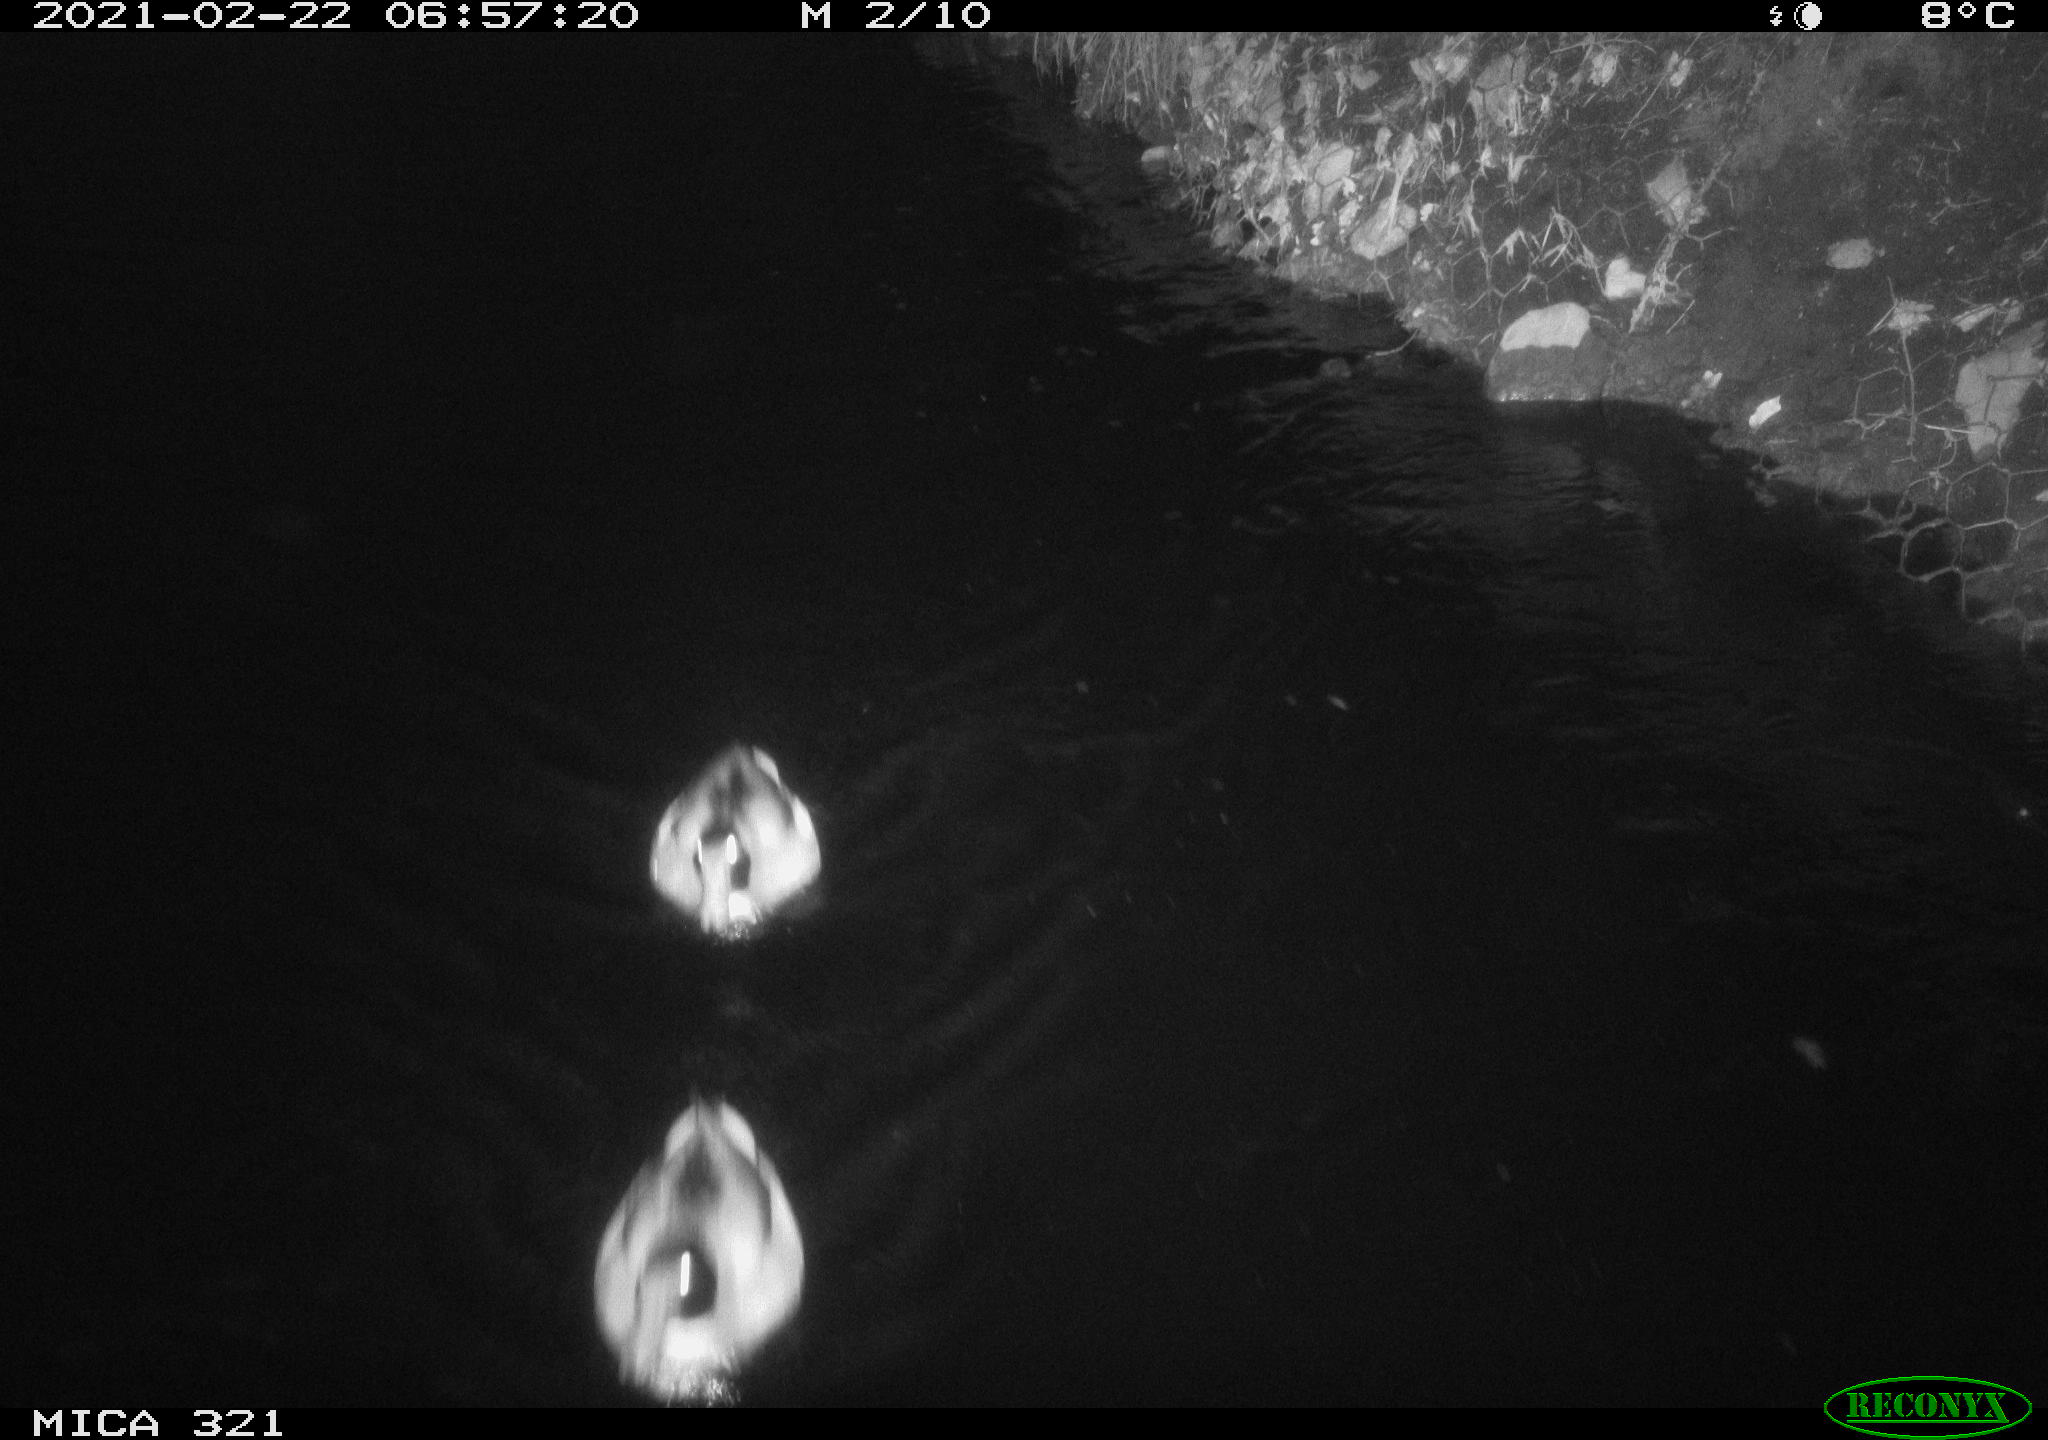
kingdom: Animalia
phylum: Chordata
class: Aves
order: Anseriformes
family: Anatidae
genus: Anas
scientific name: Anas platyrhynchos
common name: Mallard
